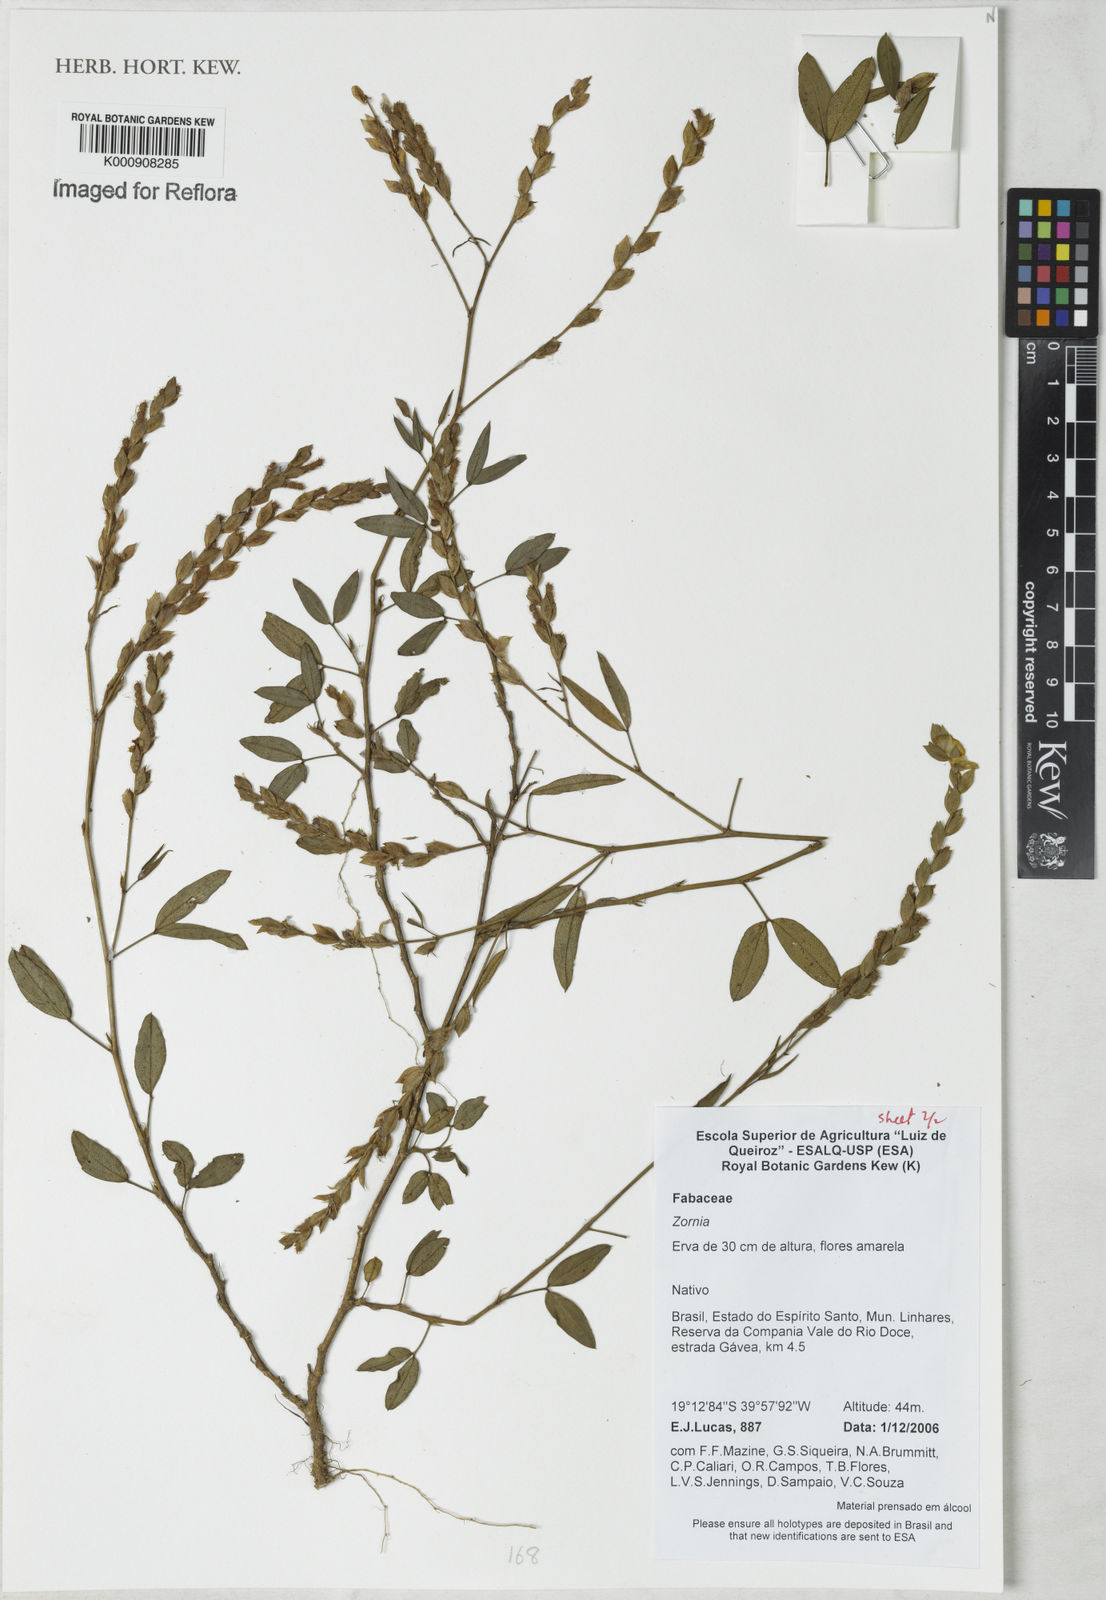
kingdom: Plantae
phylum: Tracheophyta
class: Magnoliopsida
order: Fabales
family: Fabaceae
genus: Zornia
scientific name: Zornia
